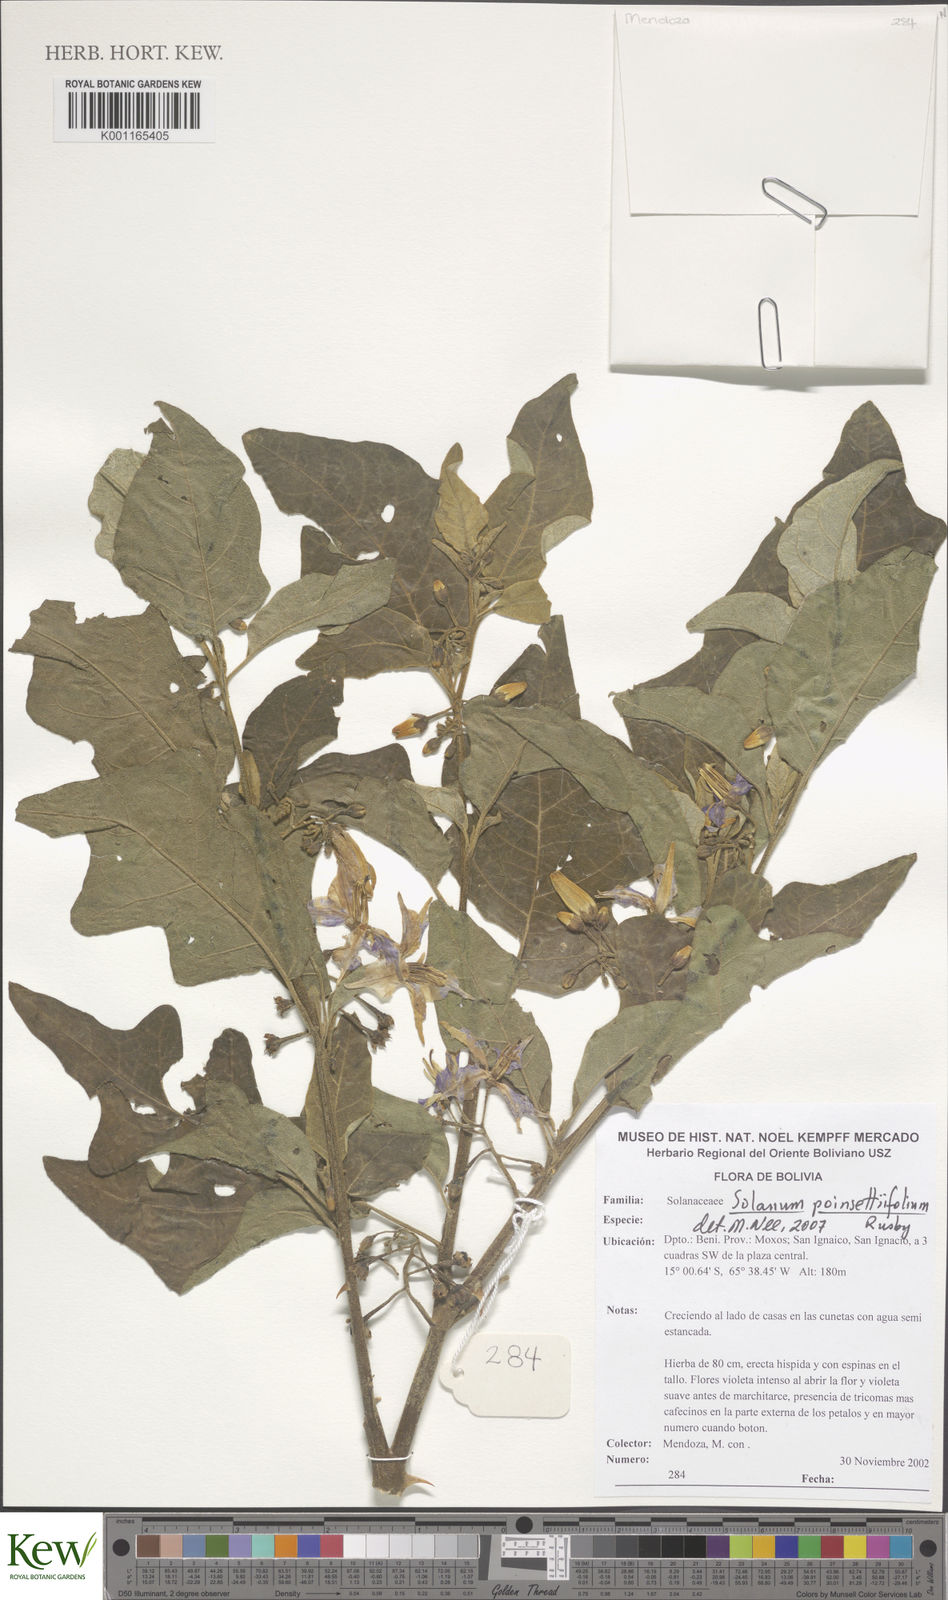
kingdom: Plantae
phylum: Tracheophyta
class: Magnoliopsida
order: Solanales
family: Solanaceae
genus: Solanum
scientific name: Solanum poinsettiifolium
